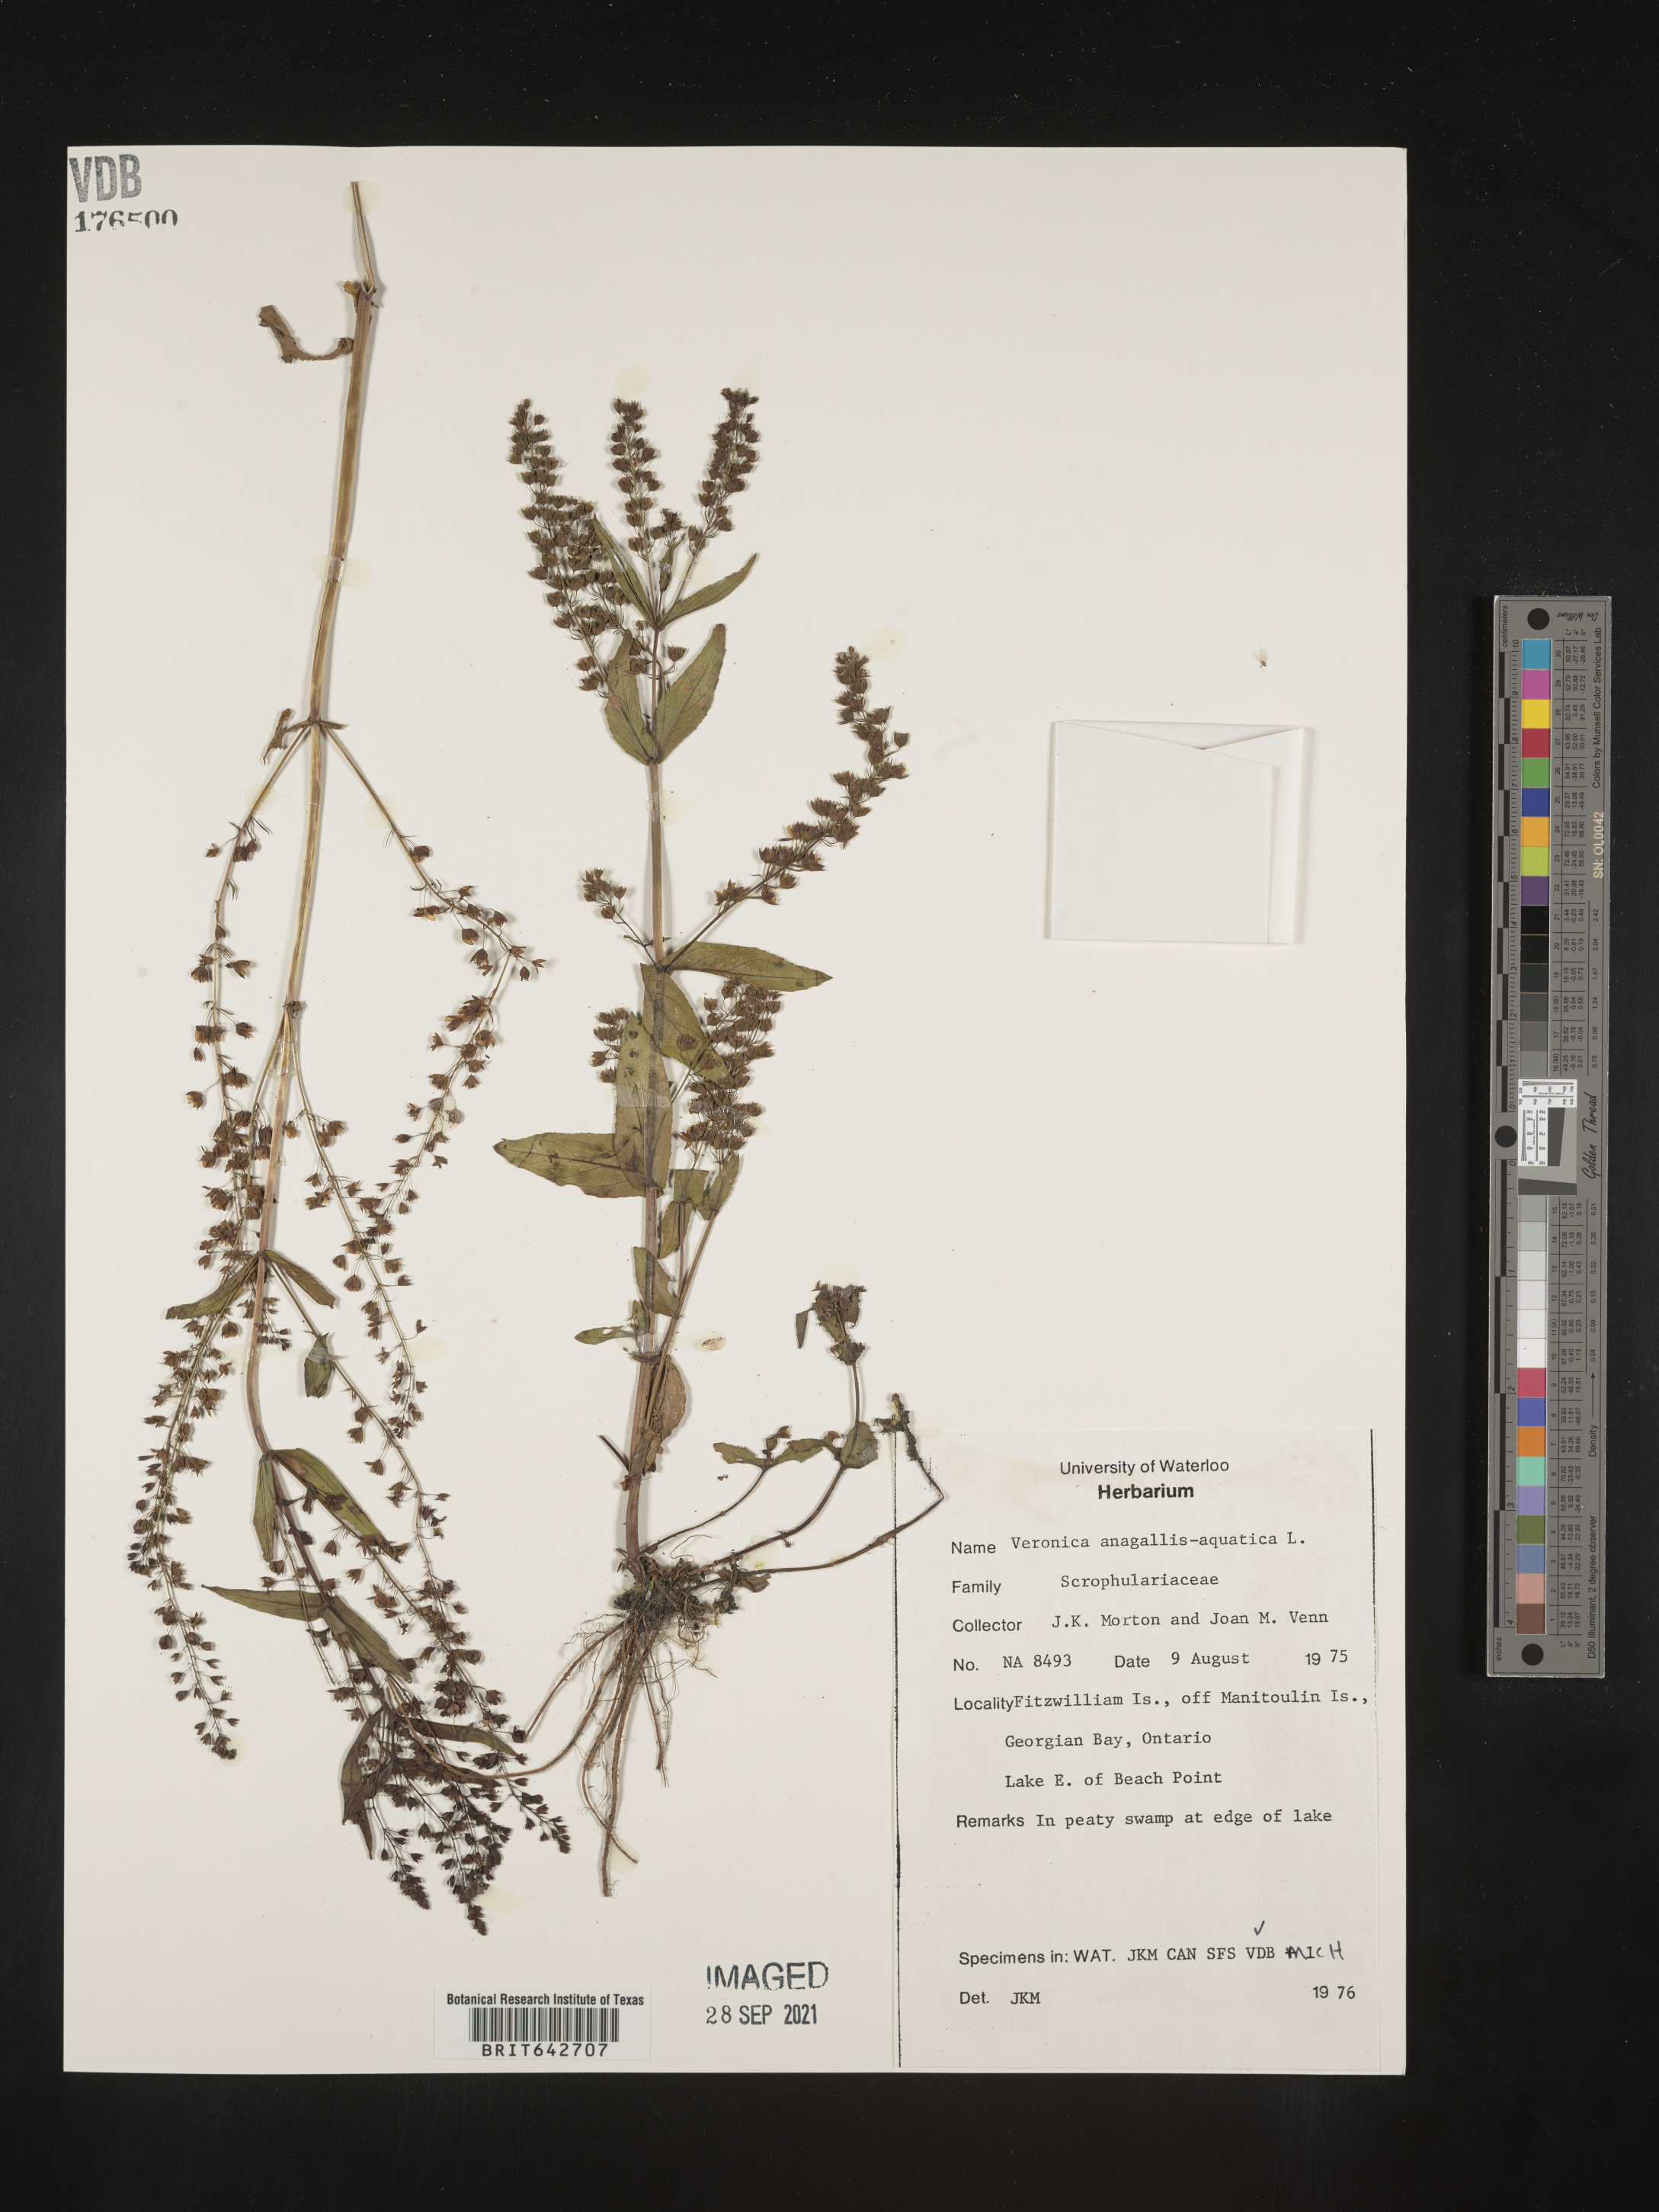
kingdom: Plantae
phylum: Tracheophyta
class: Magnoliopsida
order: Lamiales
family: Plantaginaceae
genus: Veronica
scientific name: Veronica
